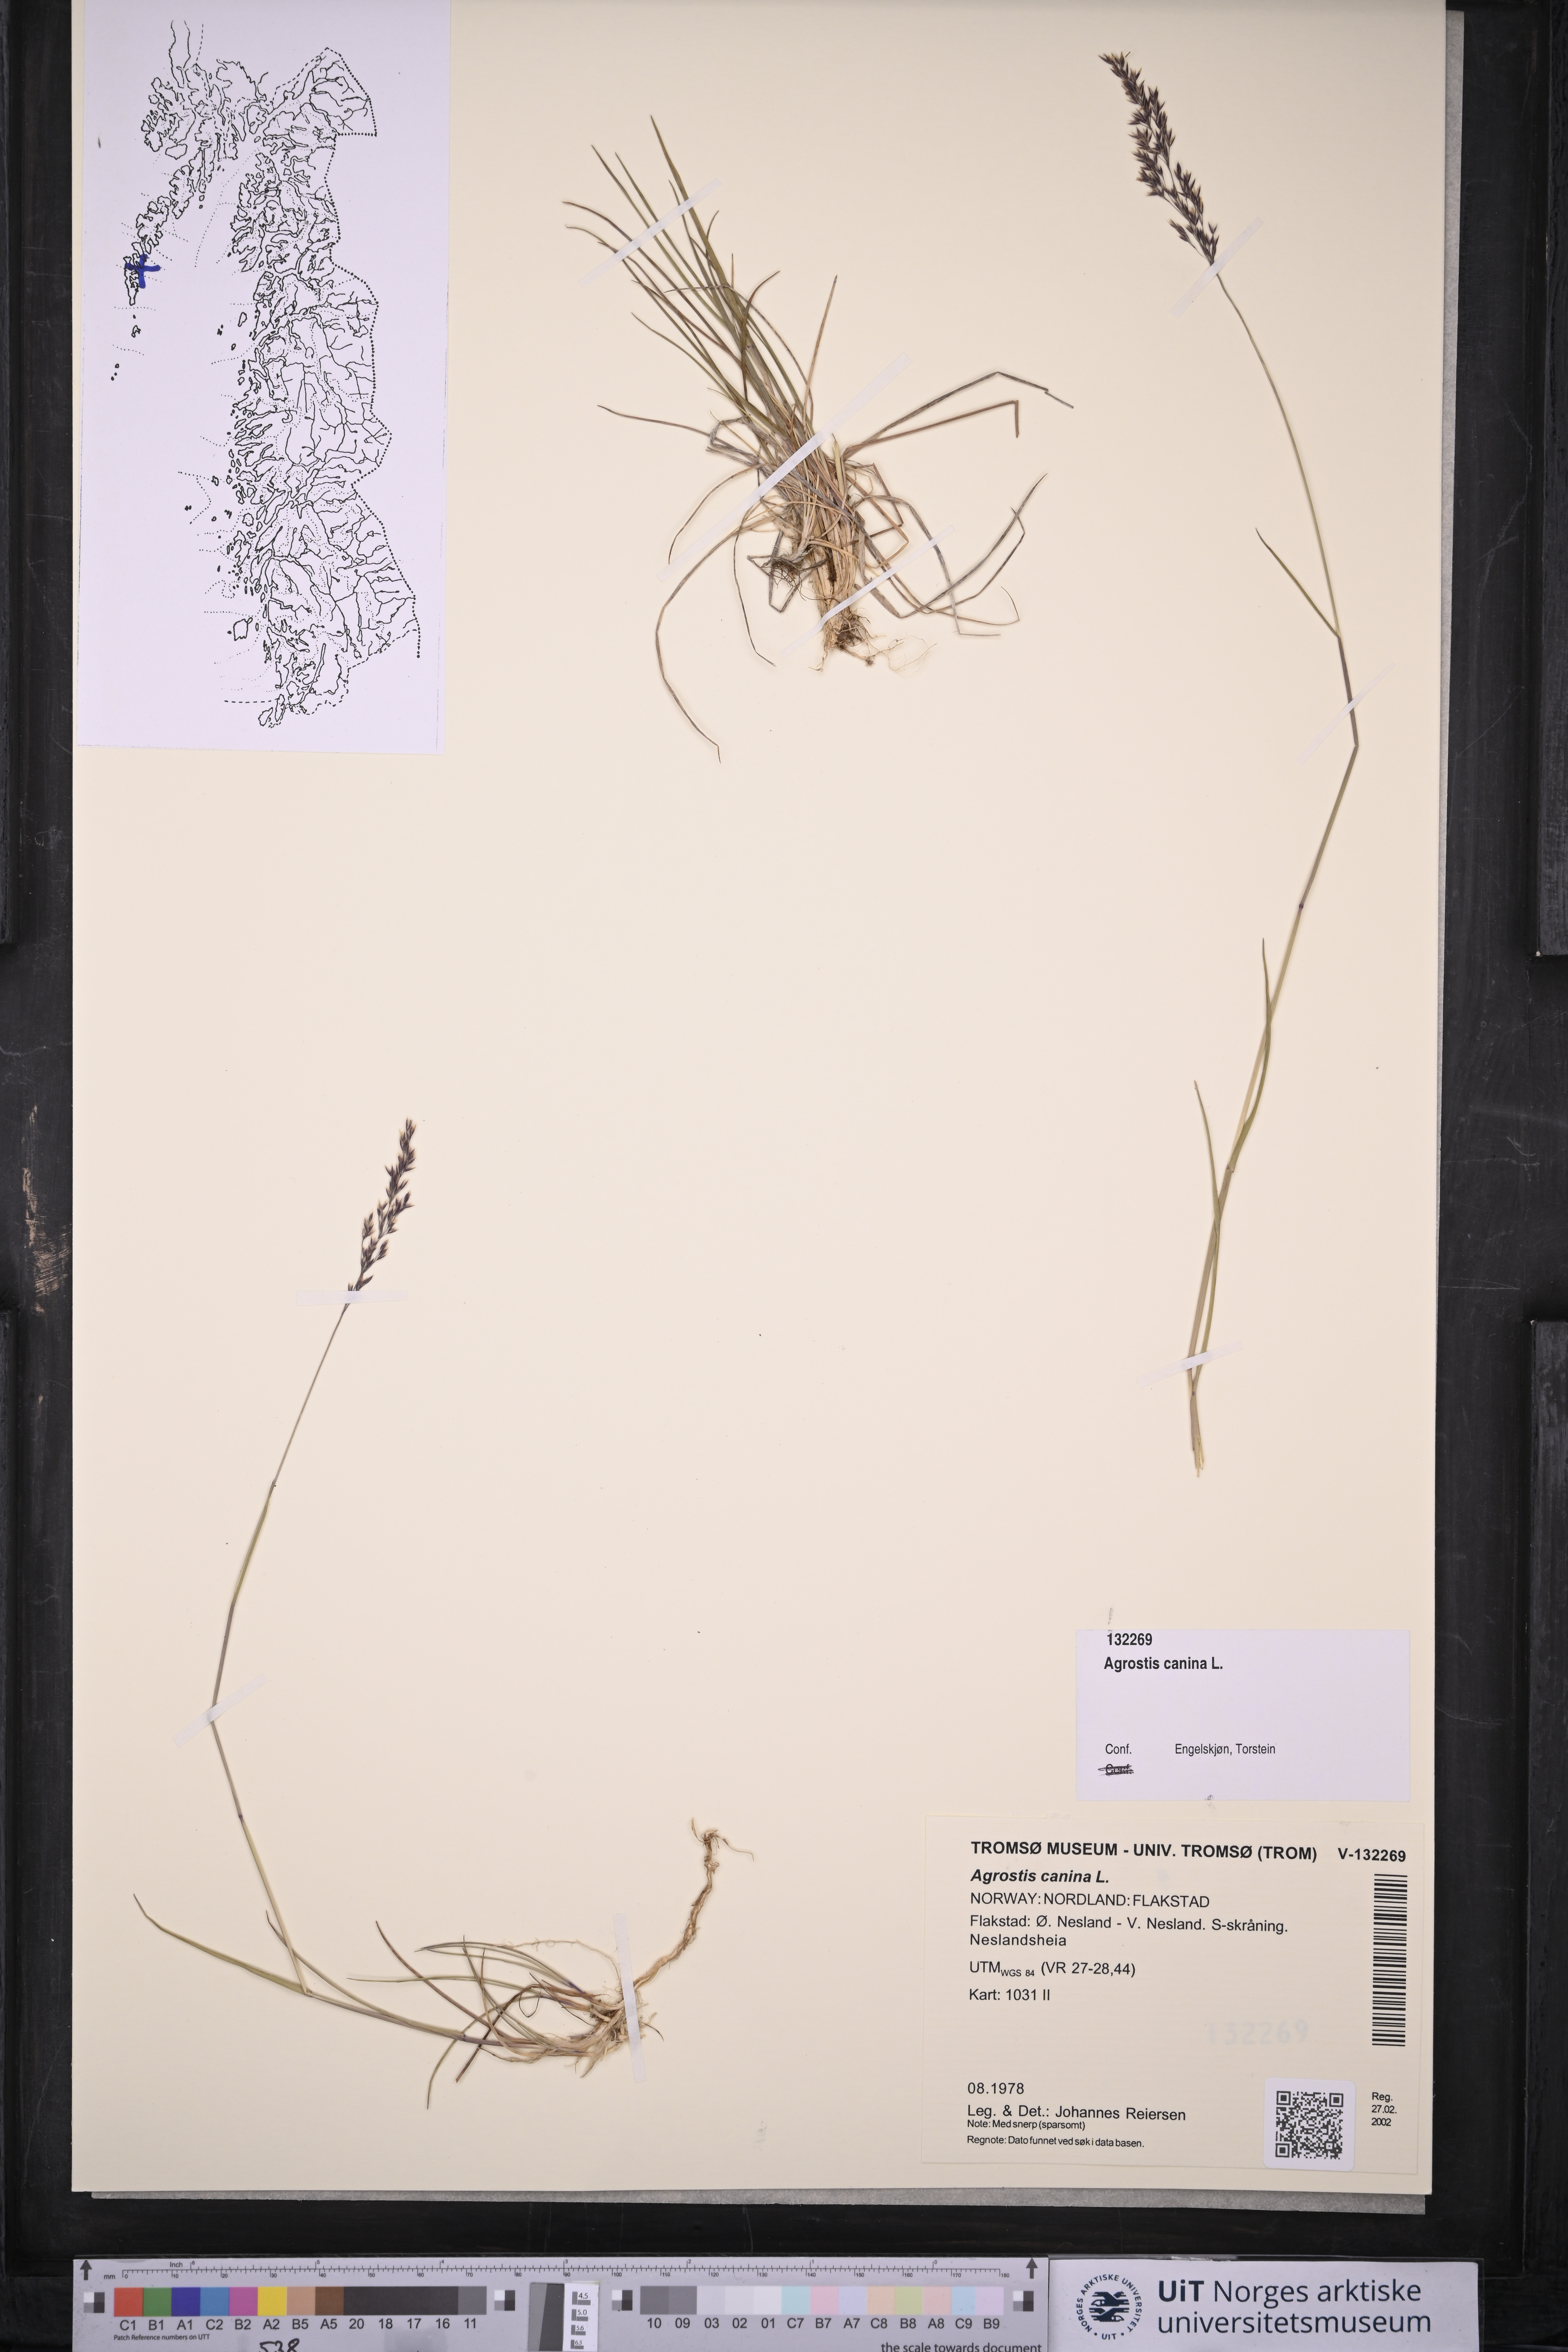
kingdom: Plantae
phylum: Tracheophyta
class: Liliopsida
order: Poales
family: Poaceae
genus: Agrostis
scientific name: Agrostis canina
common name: Velvet bent
